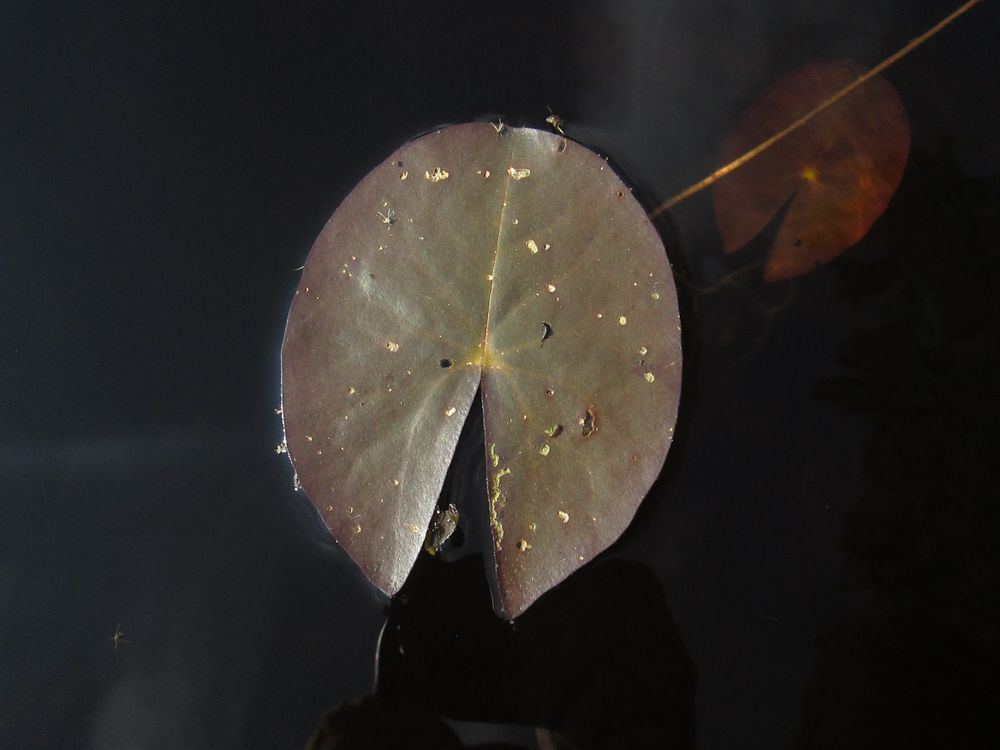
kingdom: Plantae
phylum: Tracheophyta
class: Magnoliopsida
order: Nymphaeales
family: Nymphaeaceae
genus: Nymphaea
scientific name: Nymphaea candida
